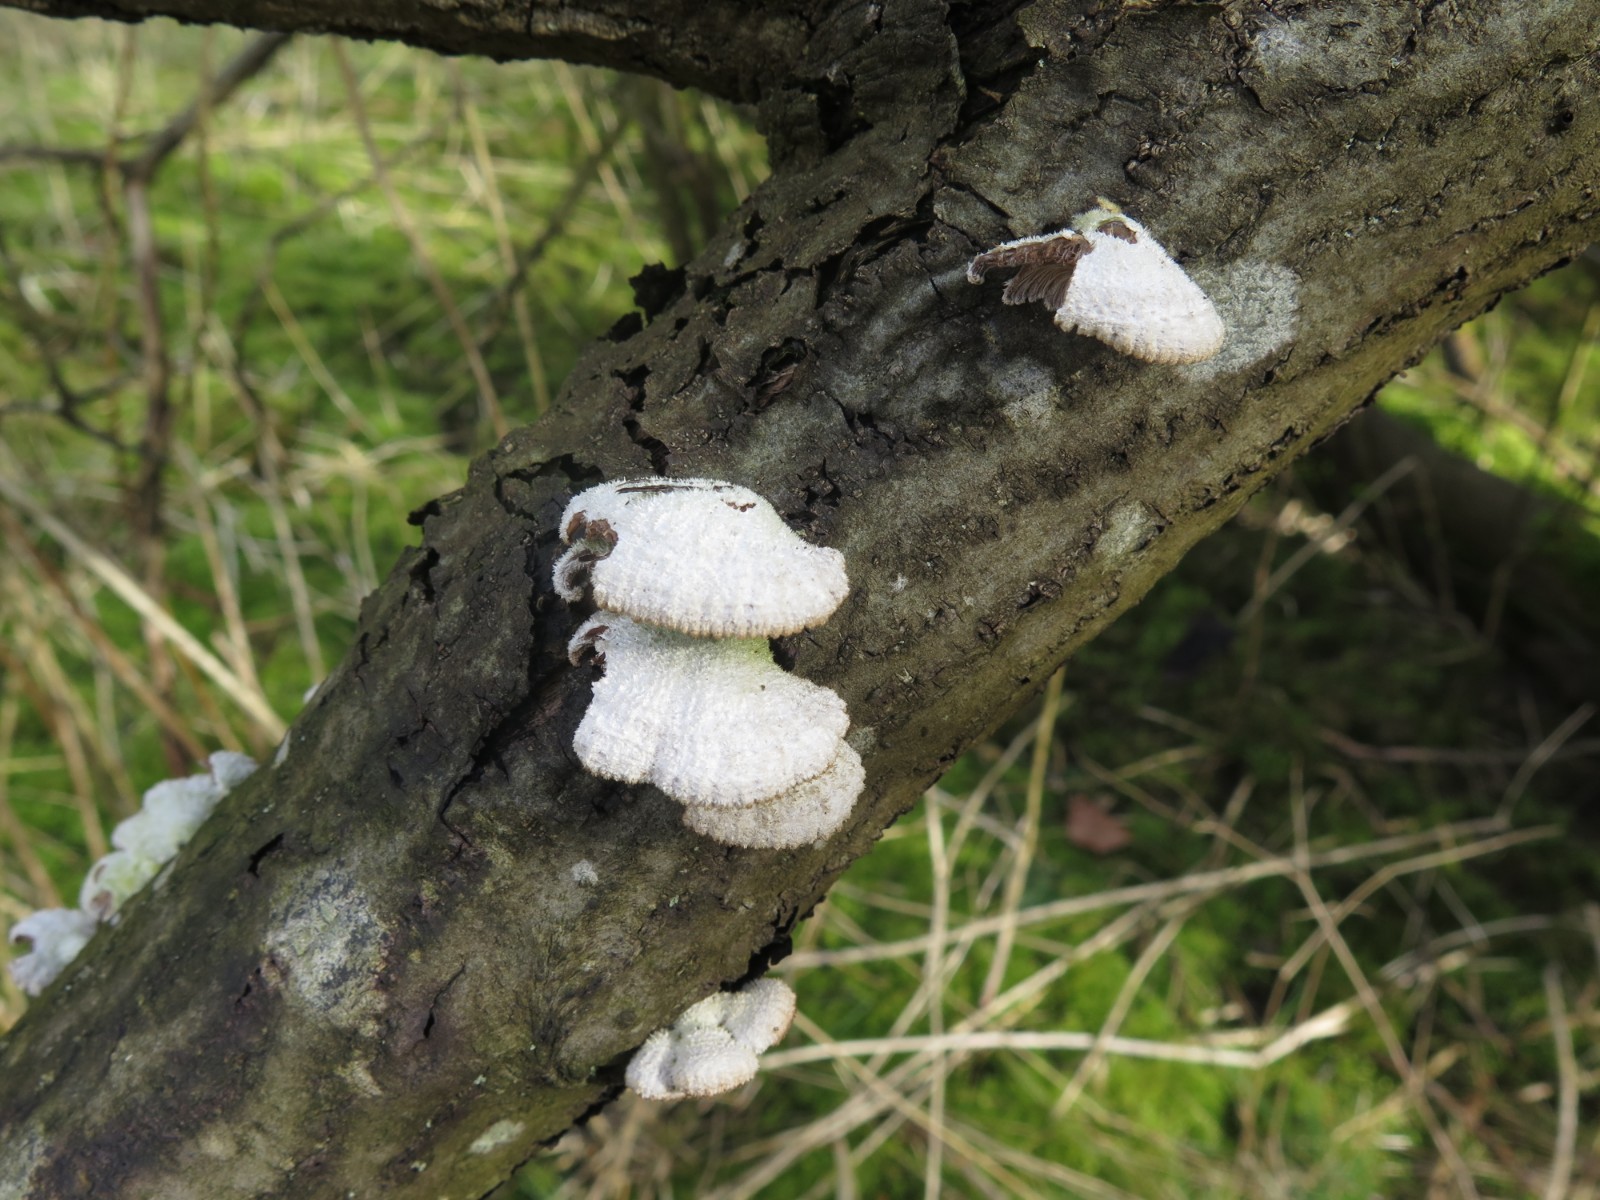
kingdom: Fungi
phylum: Basidiomycota
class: Agaricomycetes
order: Agaricales
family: Schizophyllaceae
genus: Schizophyllum
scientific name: Schizophyllum commune
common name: kløvblad
